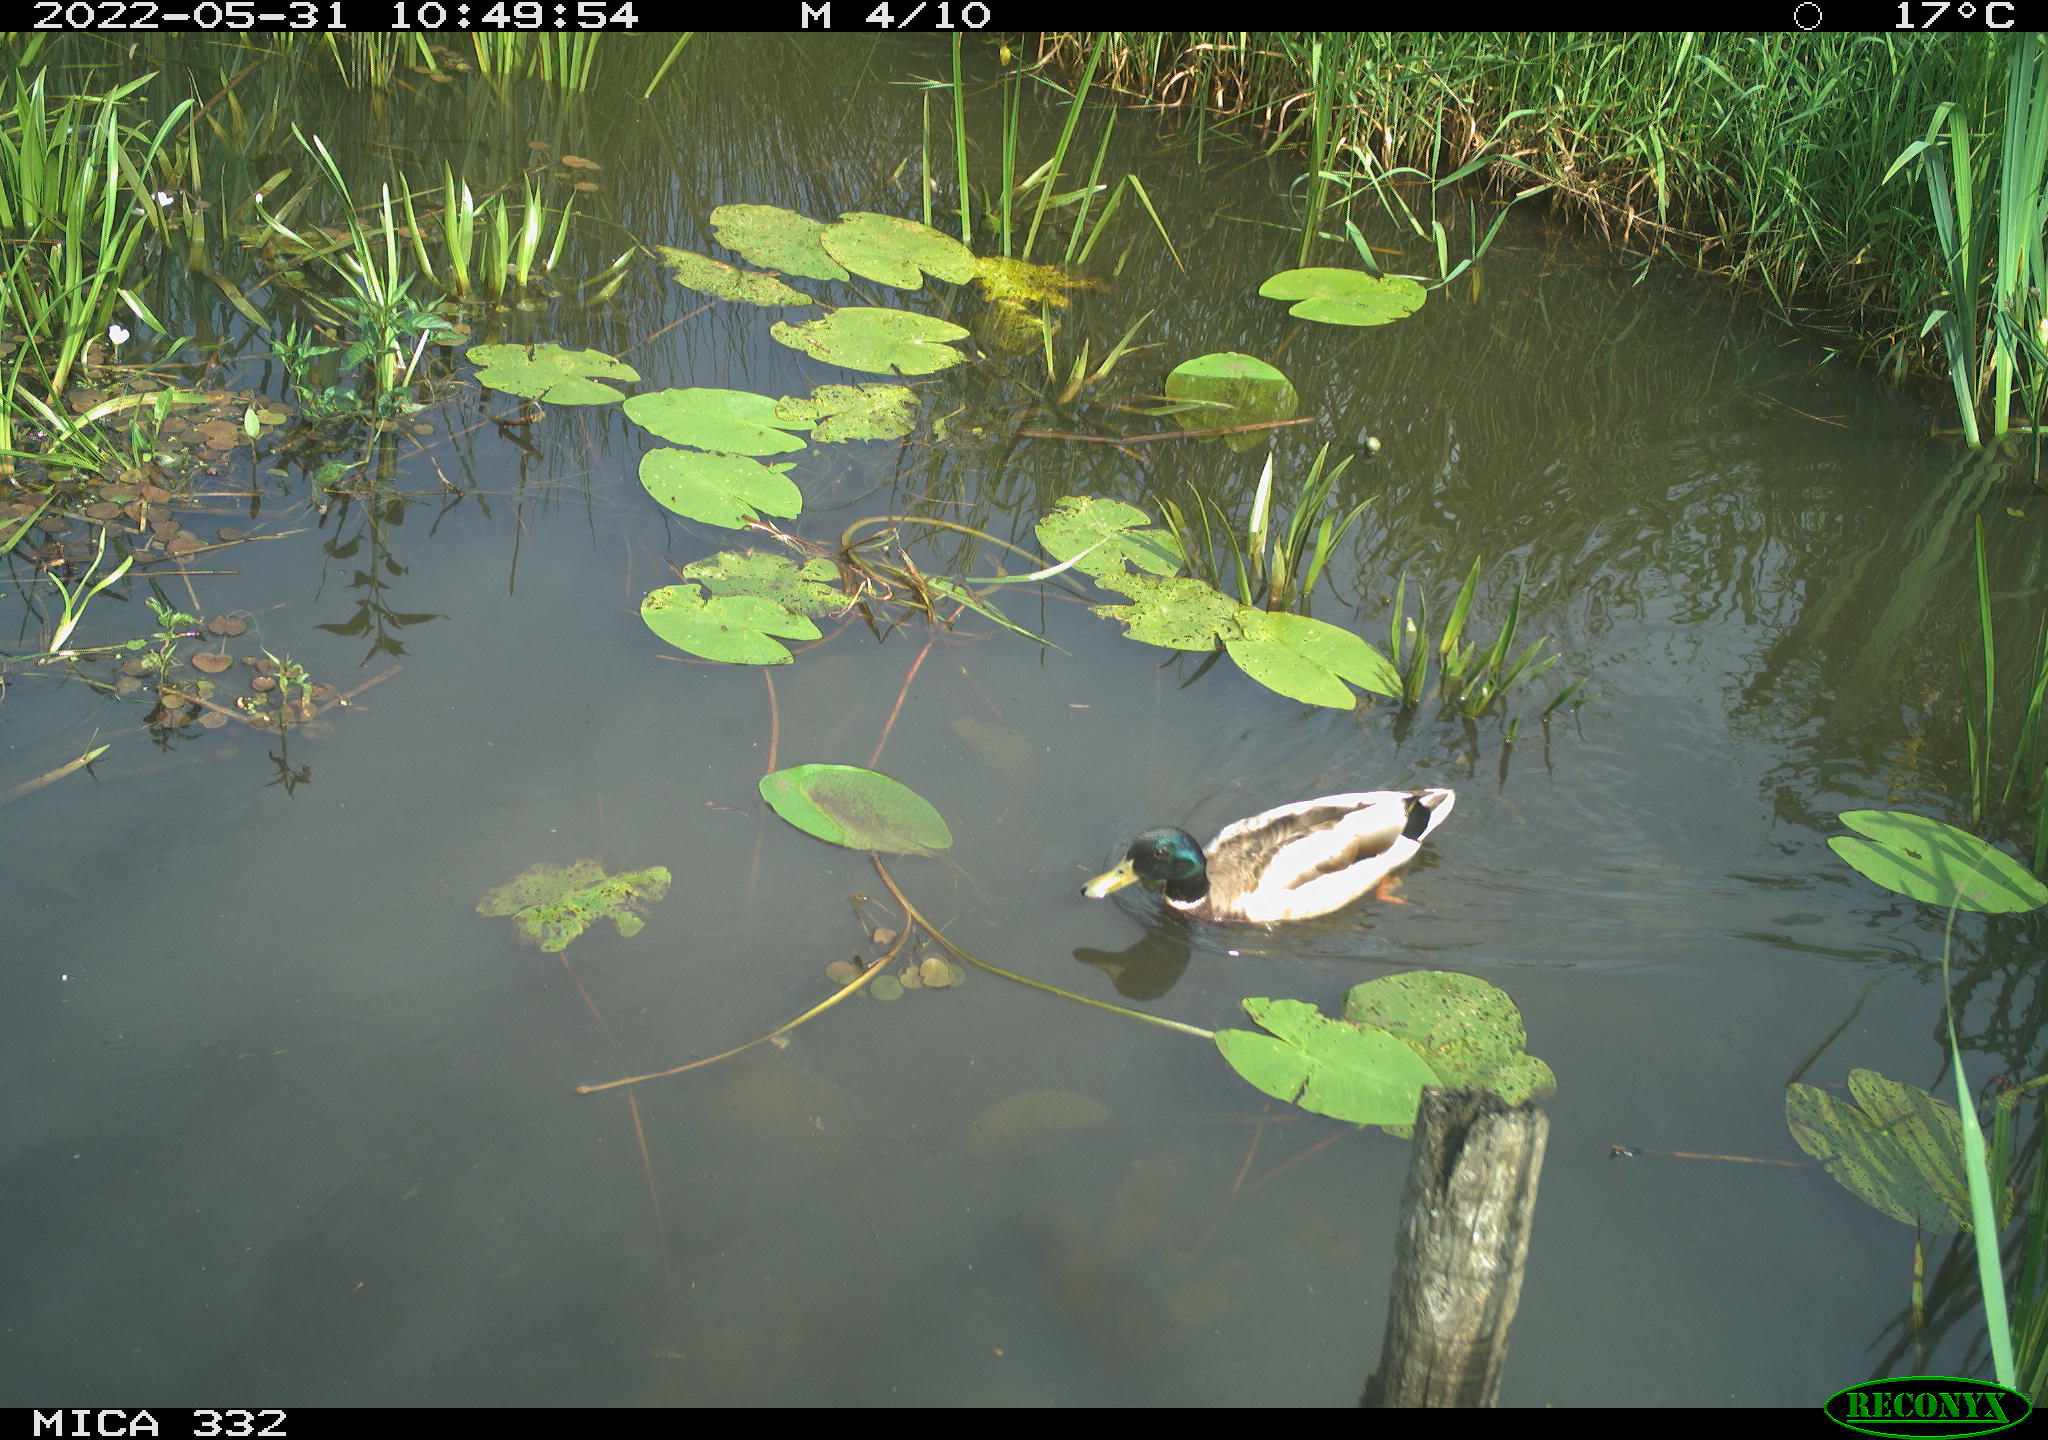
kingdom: Animalia
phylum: Chordata
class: Aves
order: Anseriformes
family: Anatidae
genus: Anas
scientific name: Anas platyrhynchos
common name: Mallard
